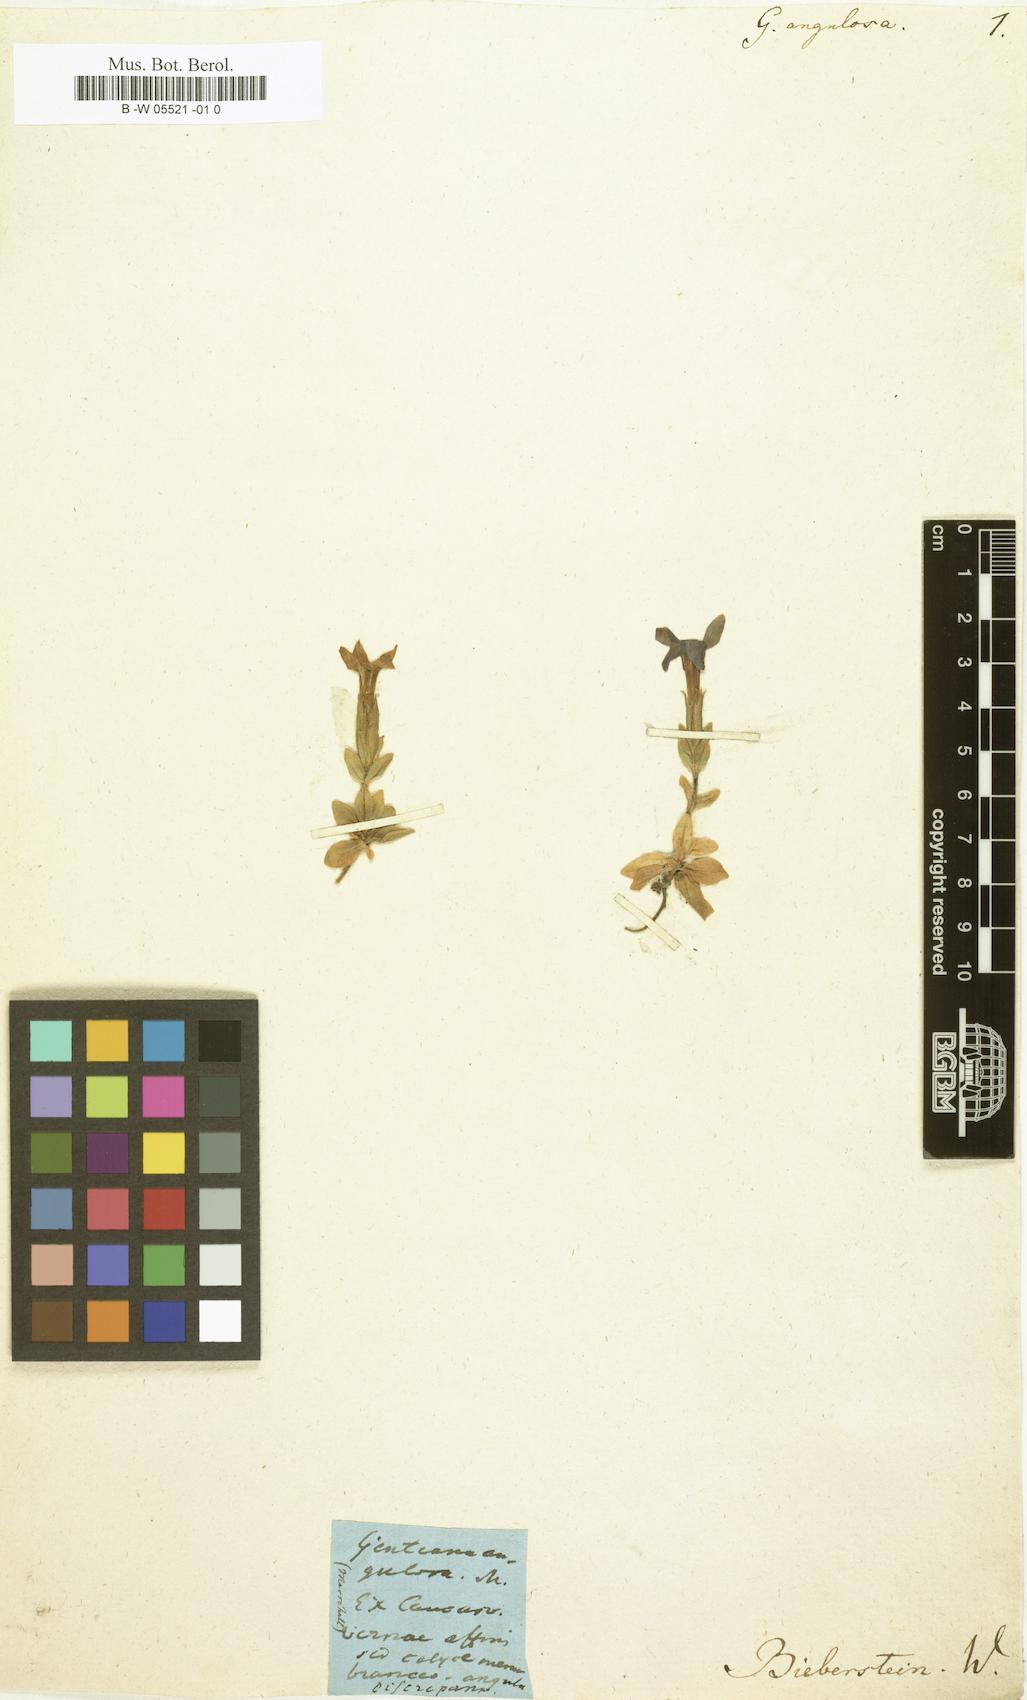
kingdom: Plantae
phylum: Tracheophyta
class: Magnoliopsida
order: Gentianales
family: Gentianaceae
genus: Gentiana
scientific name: Gentiana verna
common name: Spring gentian
